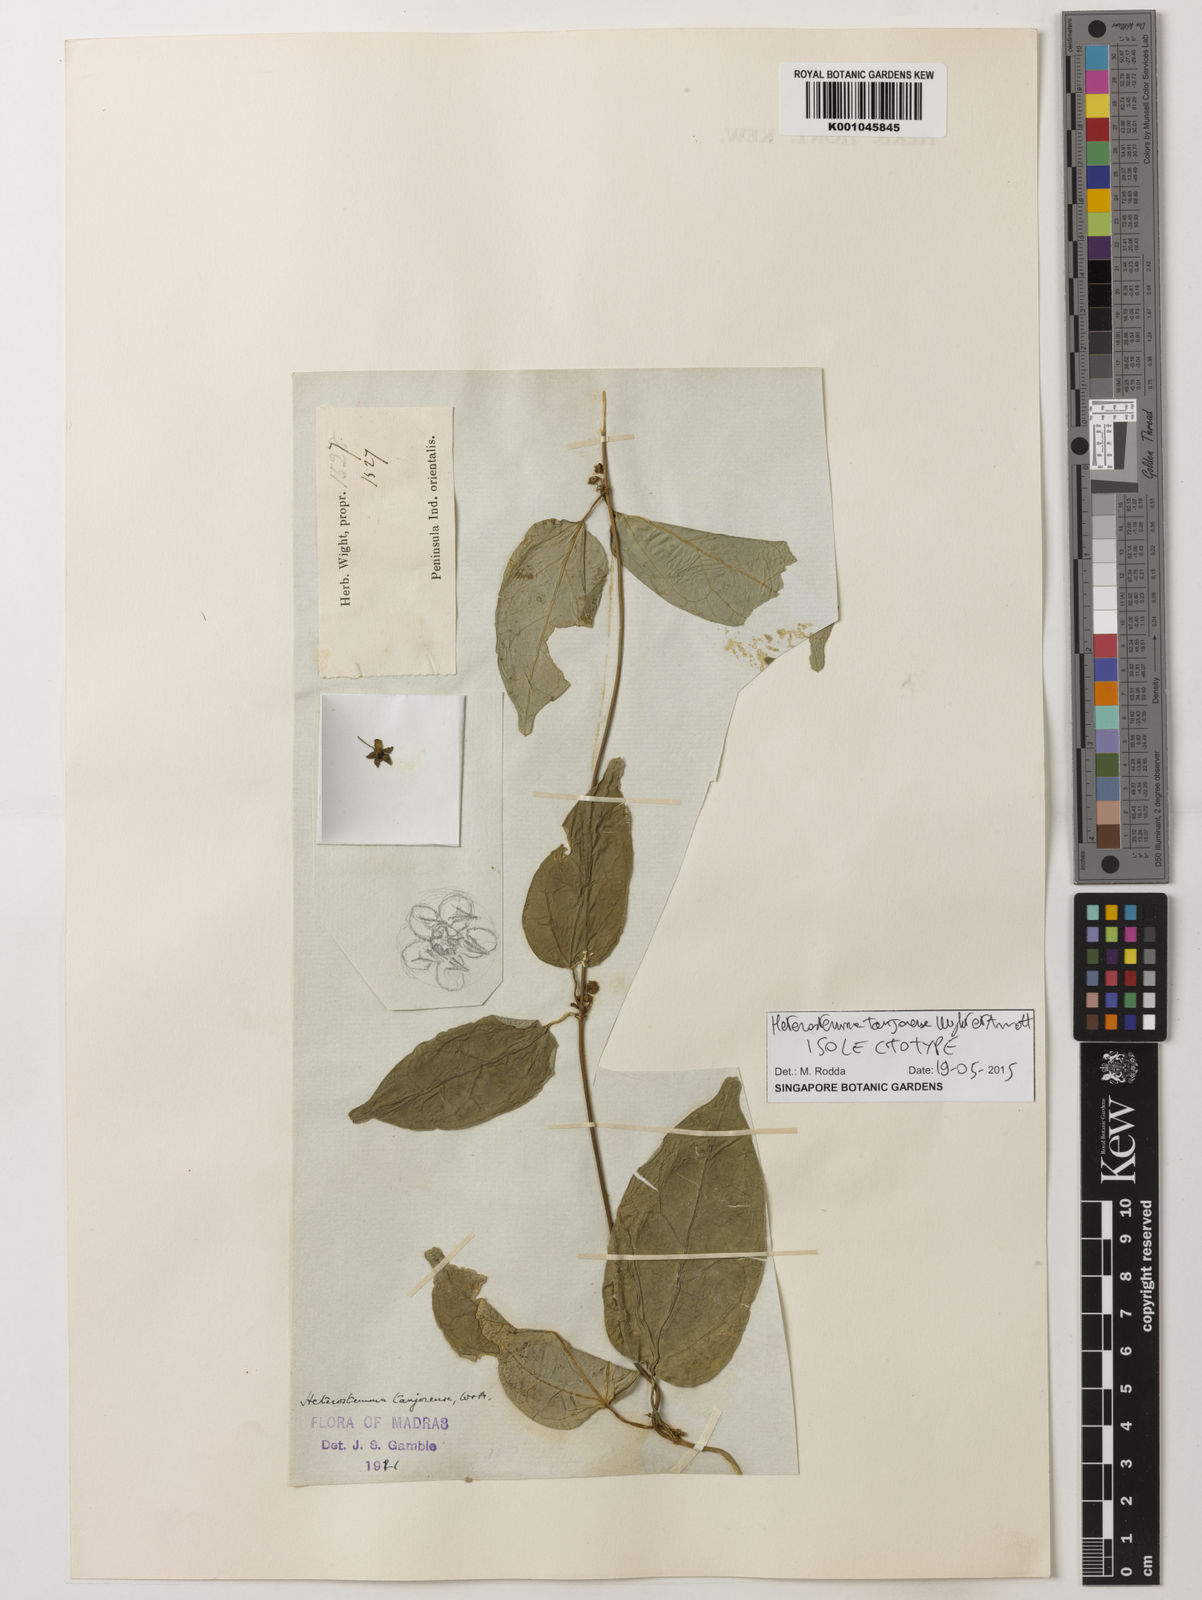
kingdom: Plantae
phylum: Tracheophyta
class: Magnoliopsida
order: Gentianales
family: Apocynaceae
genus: Heterostemma
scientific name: Heterostemma
